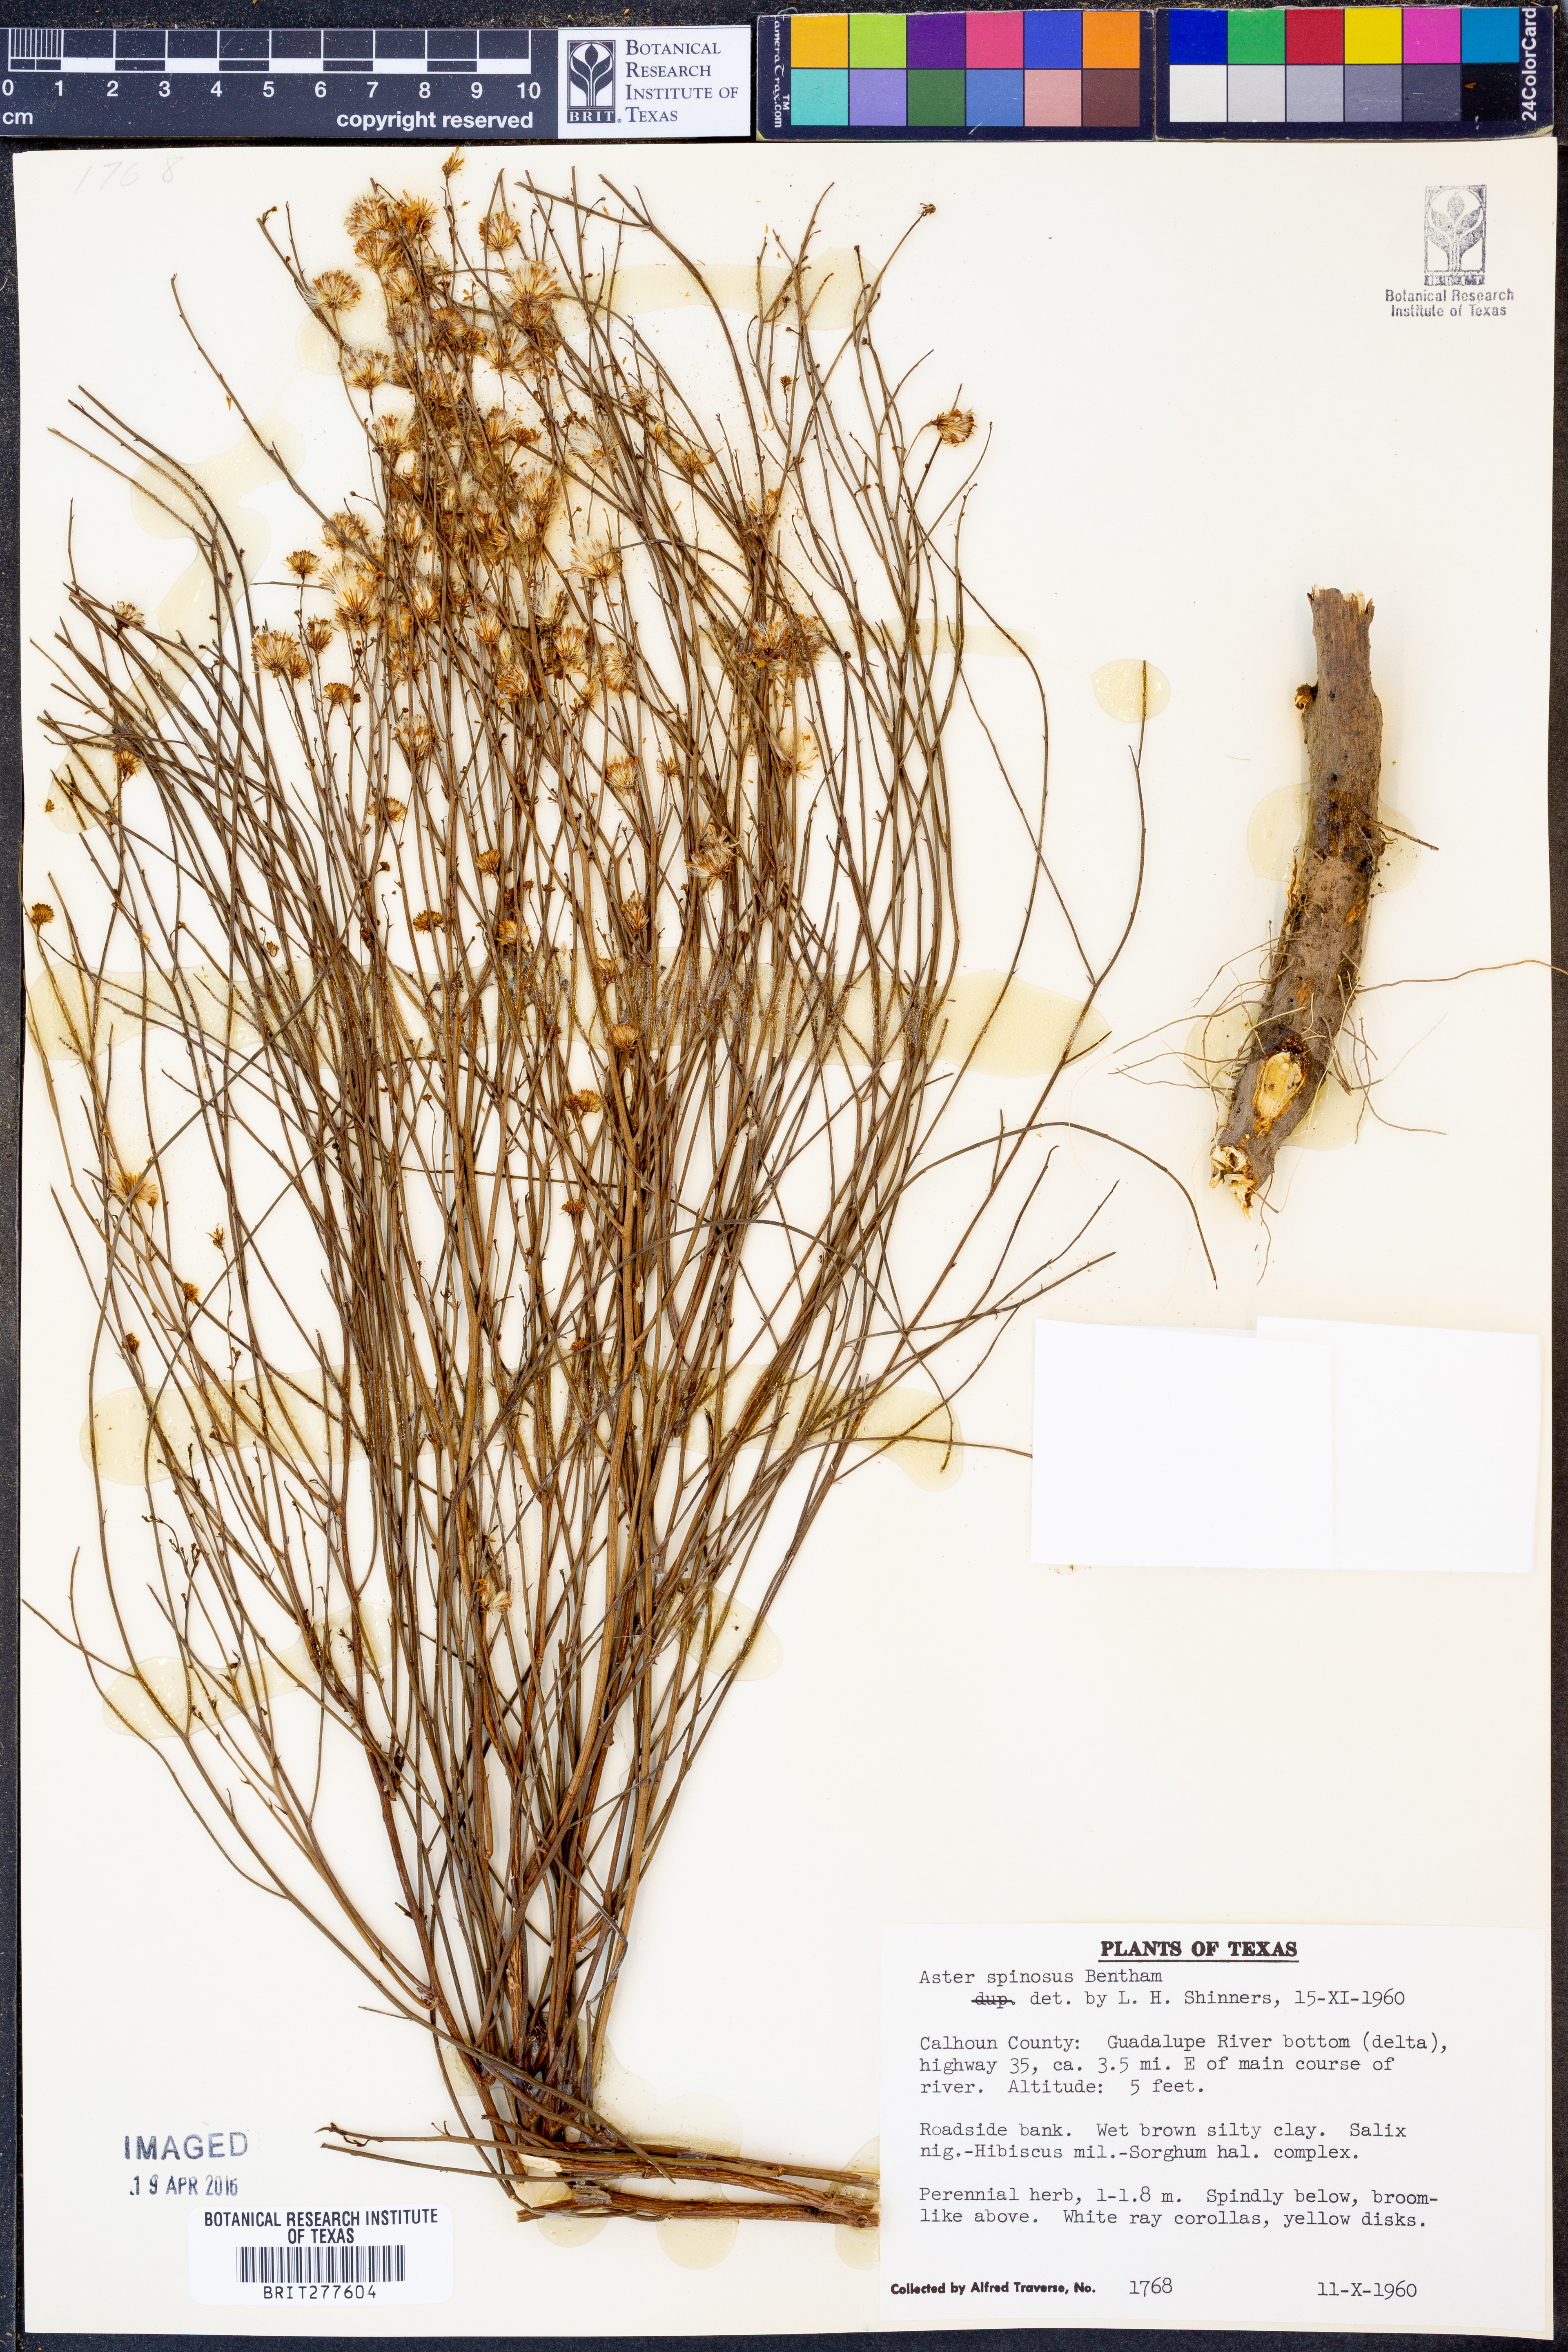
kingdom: Plantae
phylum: Tracheophyta
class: Magnoliopsida
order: Asterales
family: Asteraceae
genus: Chloracantha
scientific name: Chloracantha spinosa
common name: Mexican devilweed
